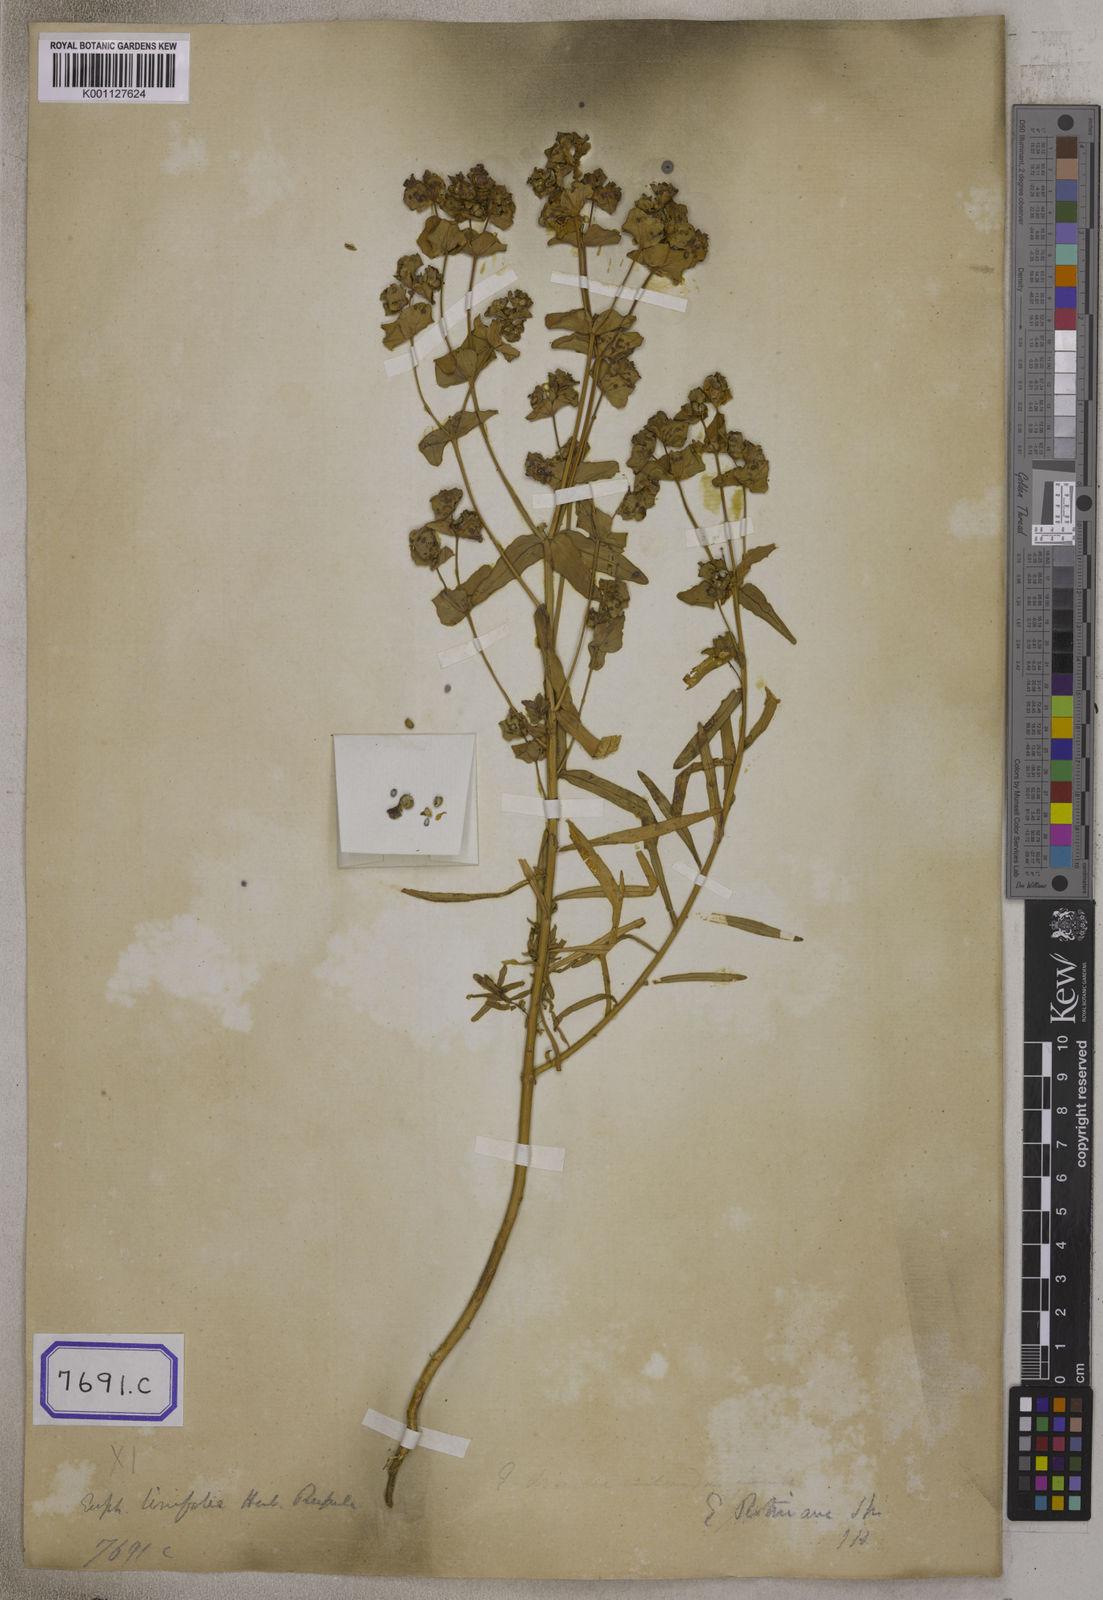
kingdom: Plantae
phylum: Tracheophyta
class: Magnoliopsida
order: Malpighiales
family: Euphorbiaceae
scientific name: Euphorbiaceae
